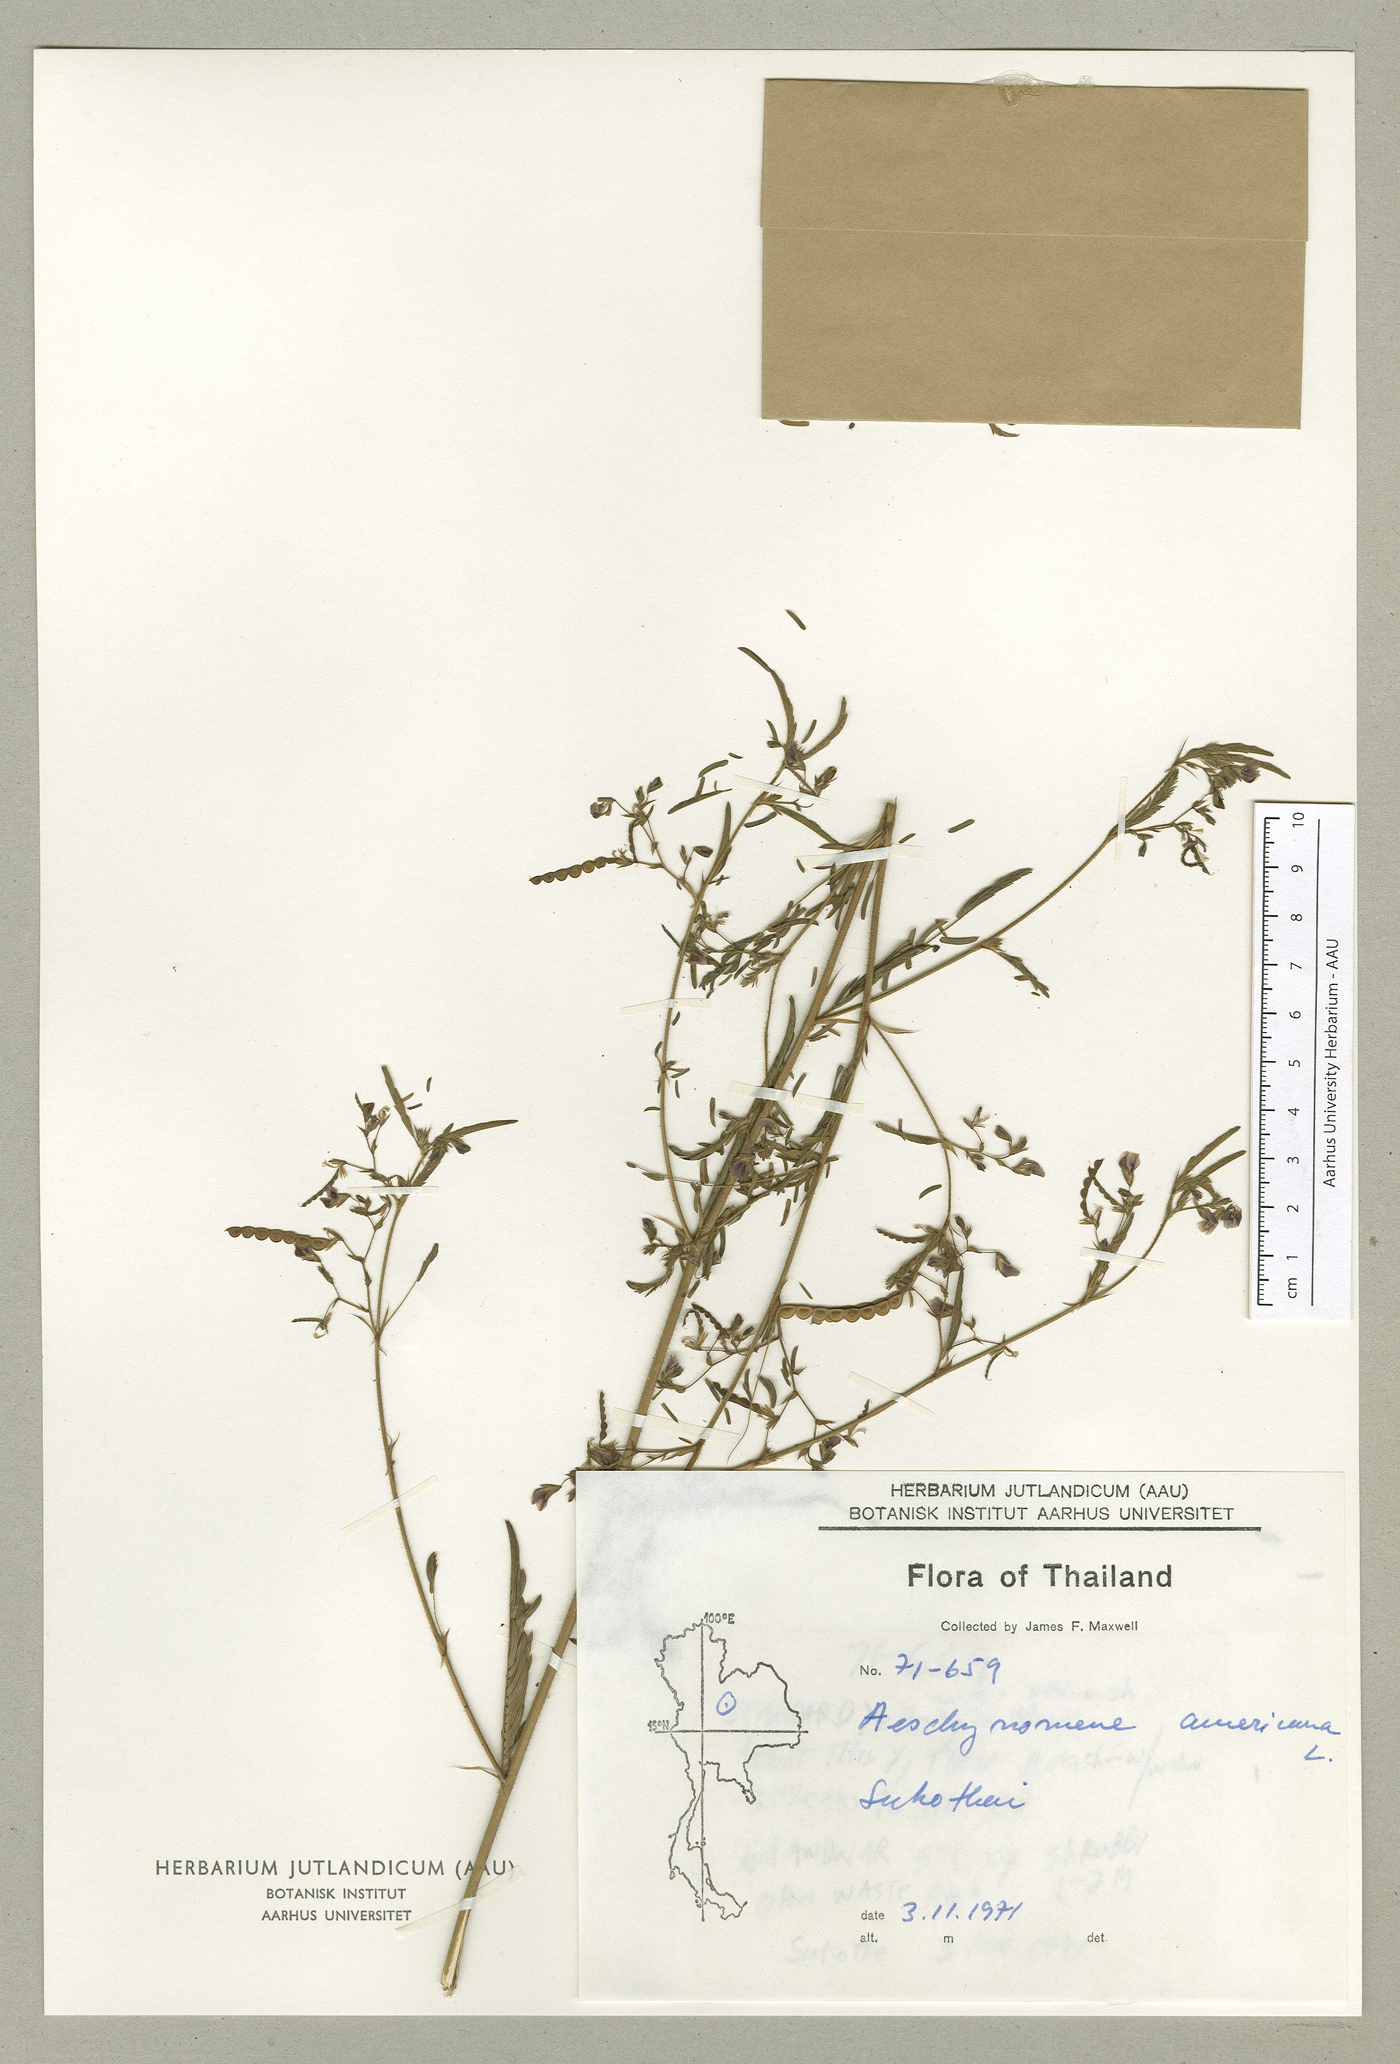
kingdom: Plantae
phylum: Tracheophyta
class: Magnoliopsida
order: Fabales
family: Fabaceae
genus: Aeschynomene
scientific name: Aeschynomene americana
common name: Joint-vetch
